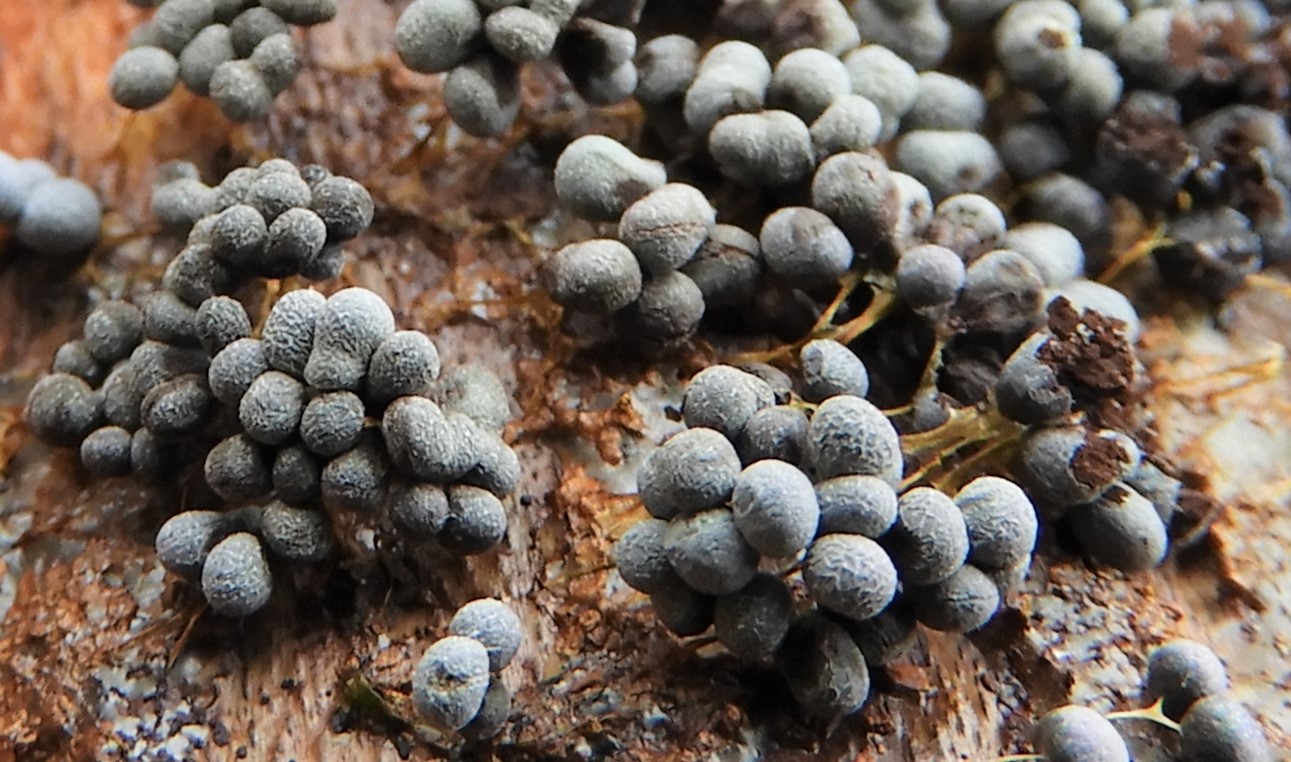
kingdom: Protozoa
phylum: Mycetozoa
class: Myxomycetes
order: Physarales
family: Physaraceae
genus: Badhamia
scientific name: Badhamia utricularis
